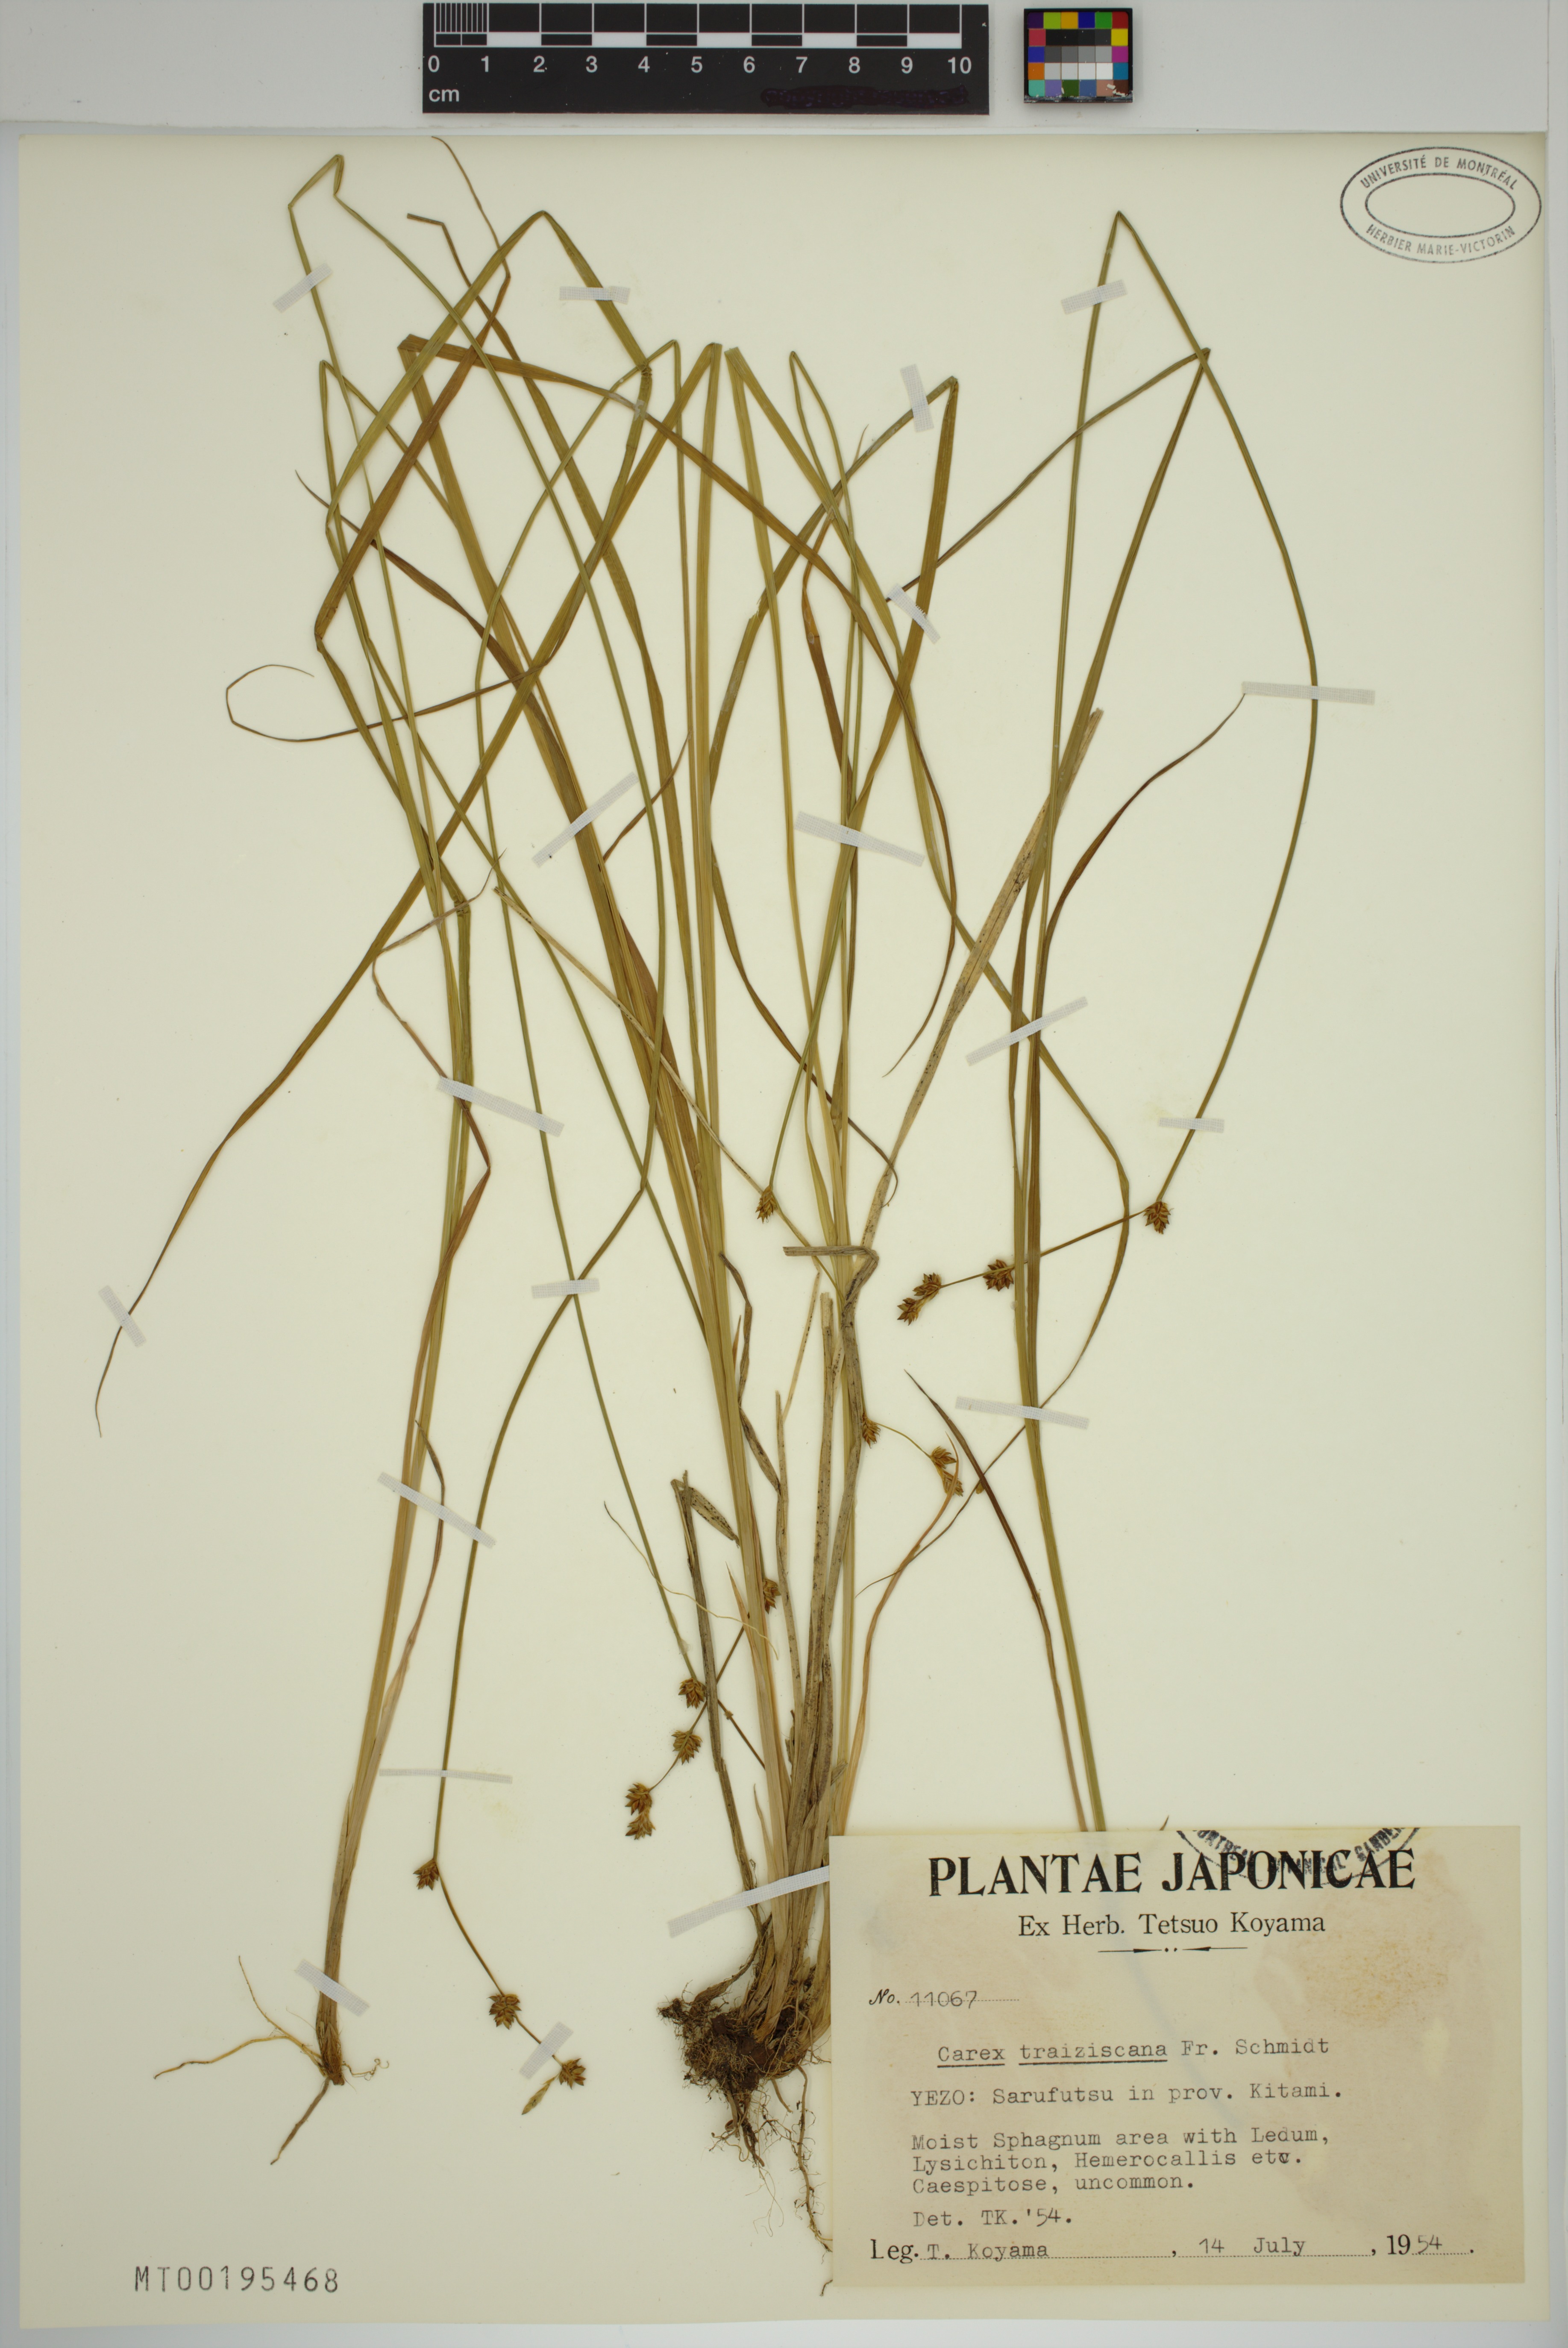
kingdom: Plantae
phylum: Tracheophyta
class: Liliopsida
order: Poales
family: Cyperaceae
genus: Carex
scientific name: Carex traiziscana
